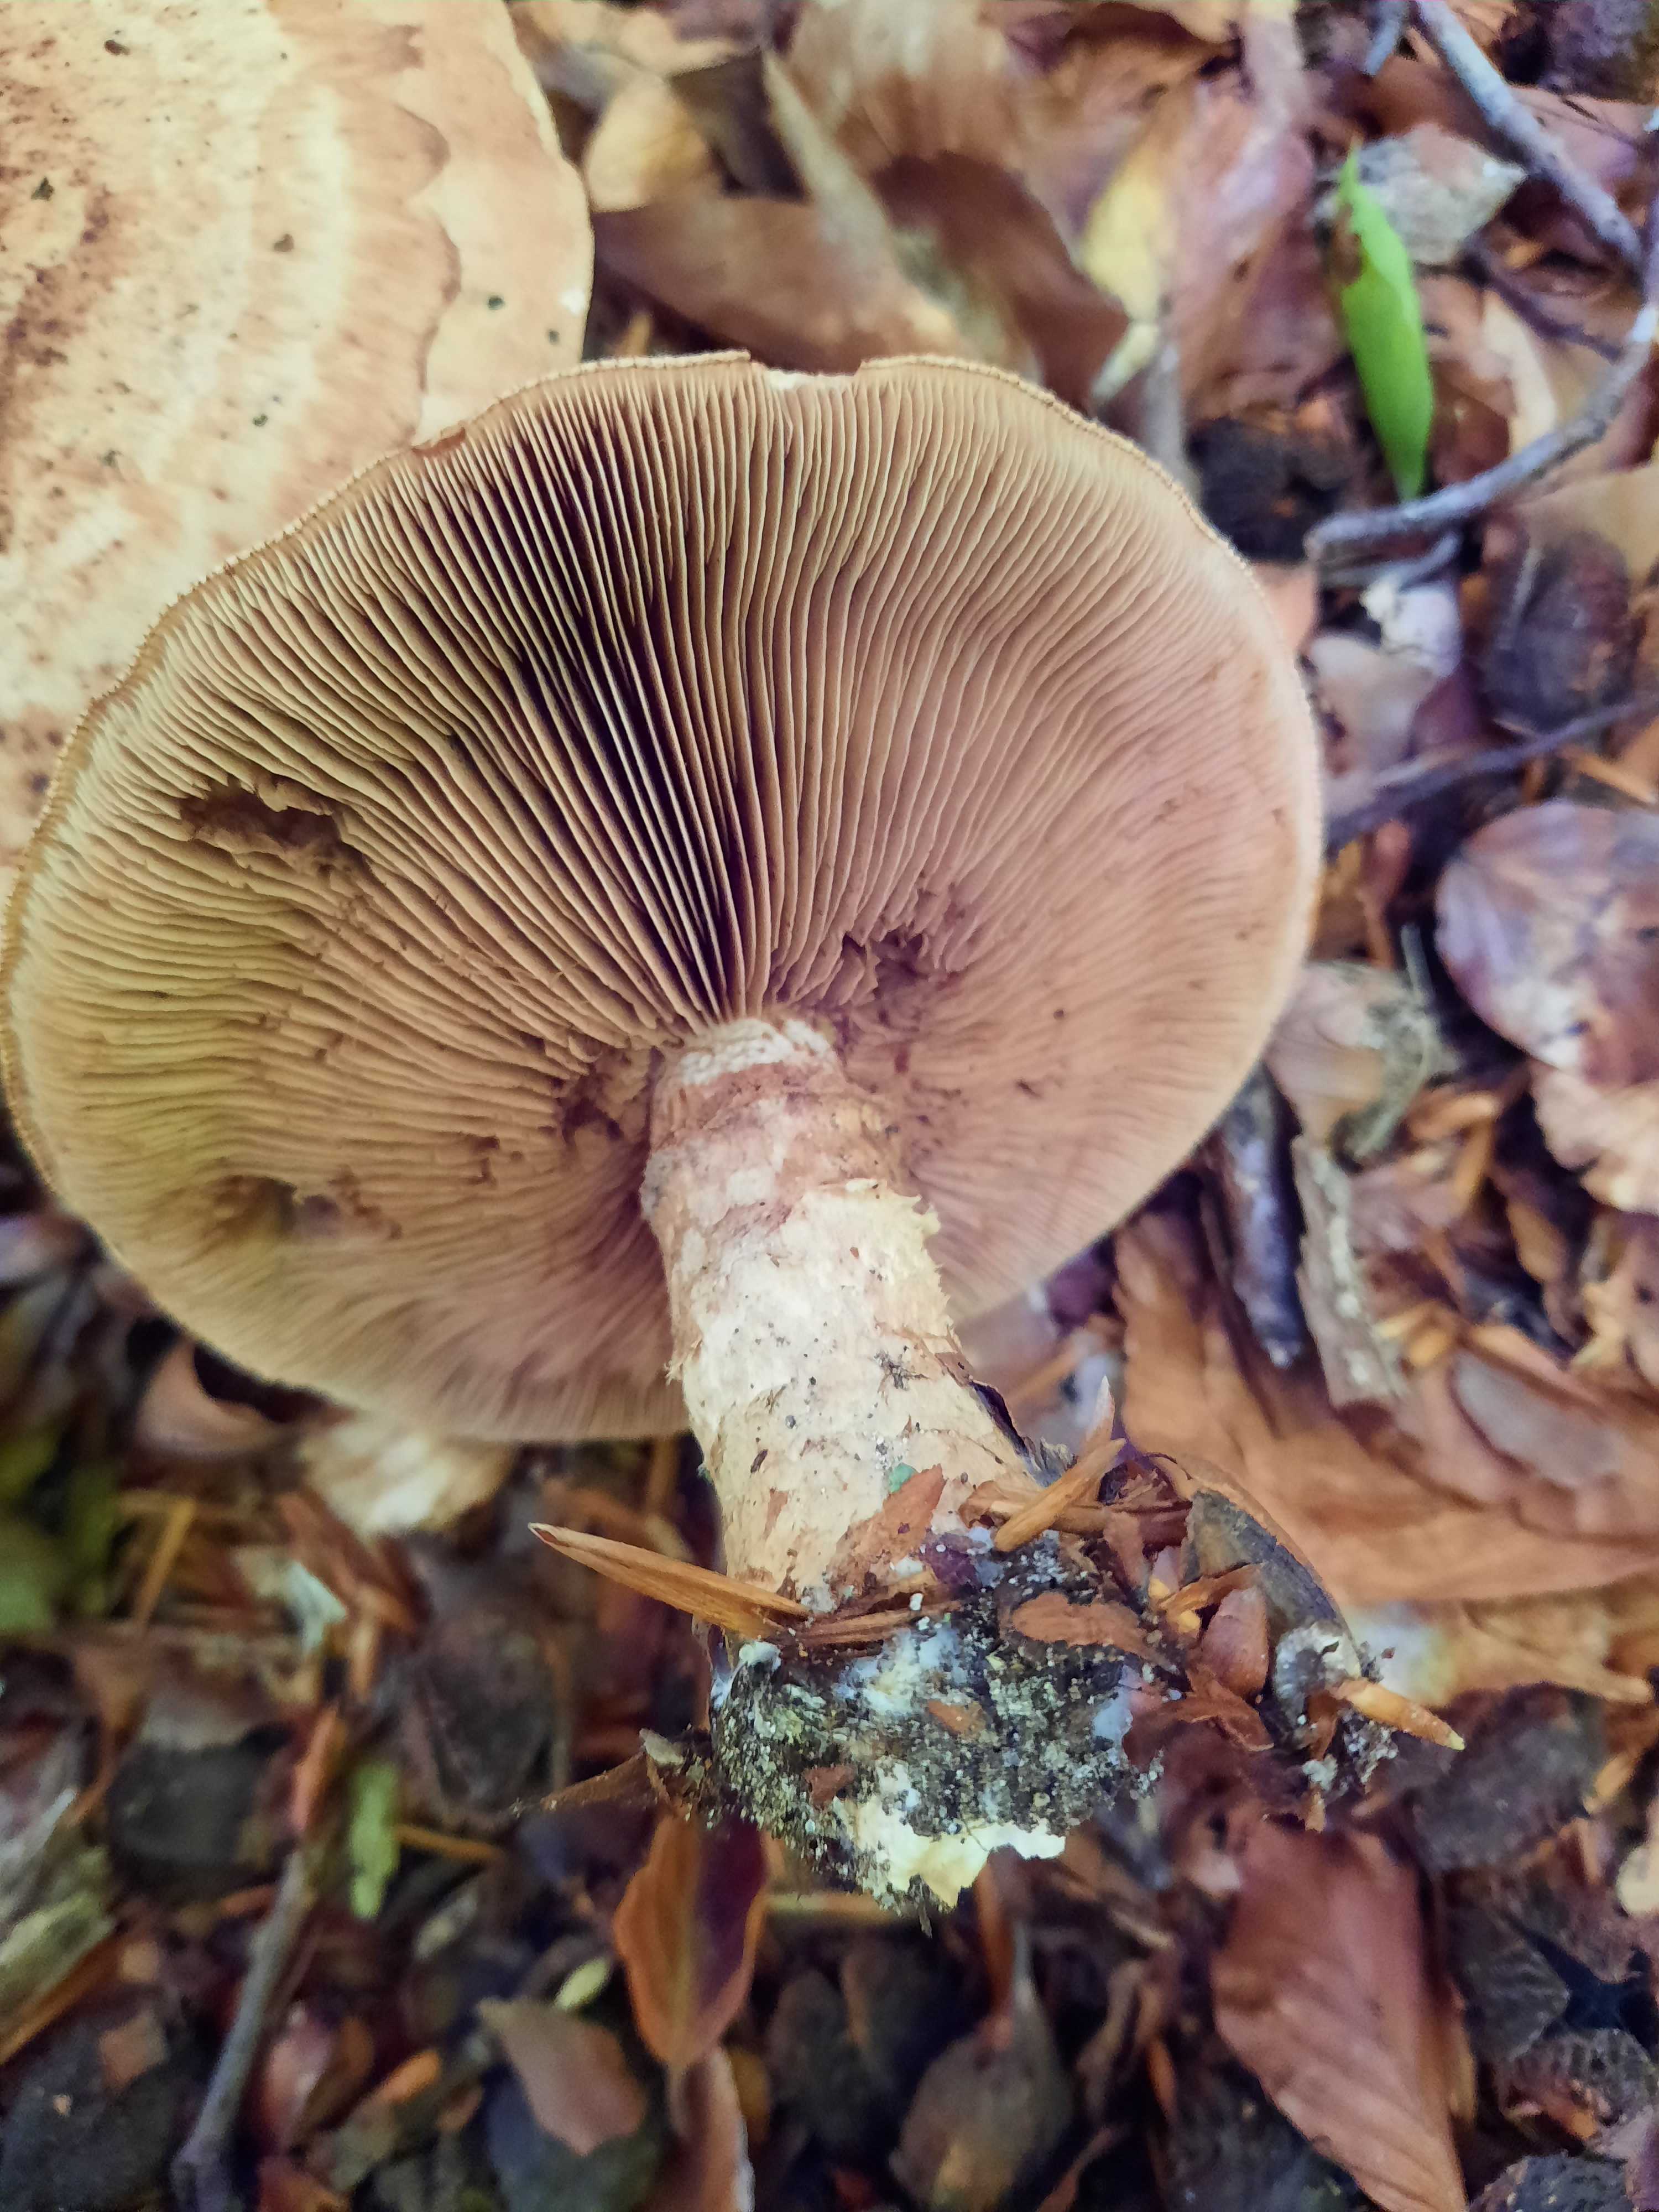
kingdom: Fungi
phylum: Basidiomycota
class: Agaricomycetes
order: Agaricales
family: Hymenogastraceae
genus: Hebeloma
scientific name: Hebeloma radicosum
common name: pælerods-tåreblad
